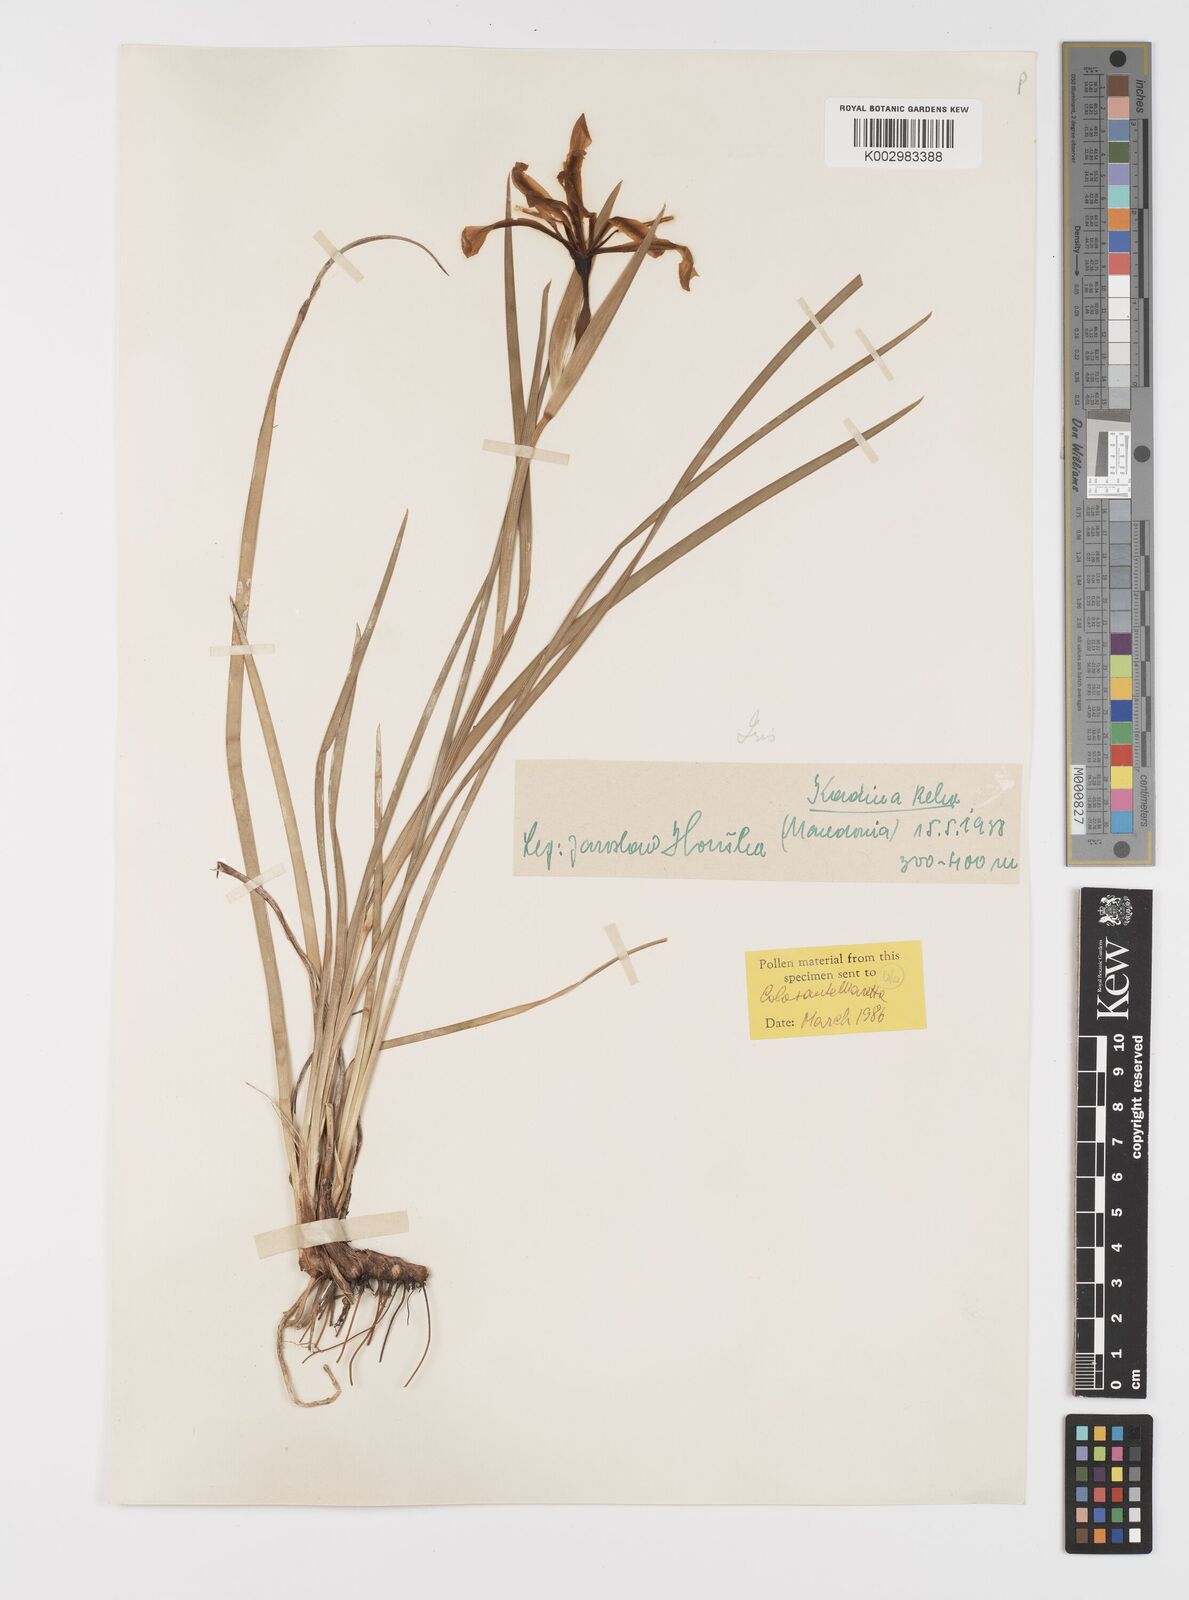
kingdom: Plantae
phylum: Tracheophyta
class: Liliopsida
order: Asparagales
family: Iridaceae
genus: Iris
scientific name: Iris sintenisii
